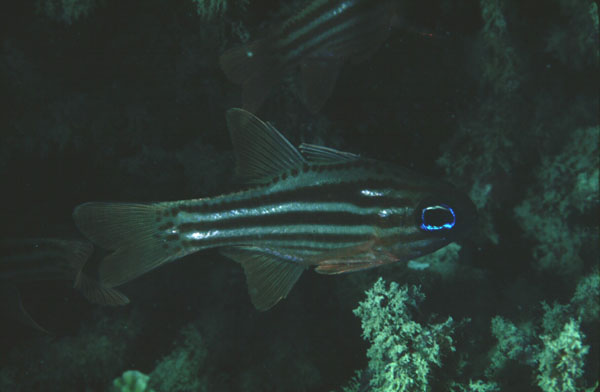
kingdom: Animalia
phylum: Chordata
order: Perciformes
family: Apogonidae
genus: Ostorhinchus
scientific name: Ostorhinchus compressus
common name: Ochre-striped cardinalfish
